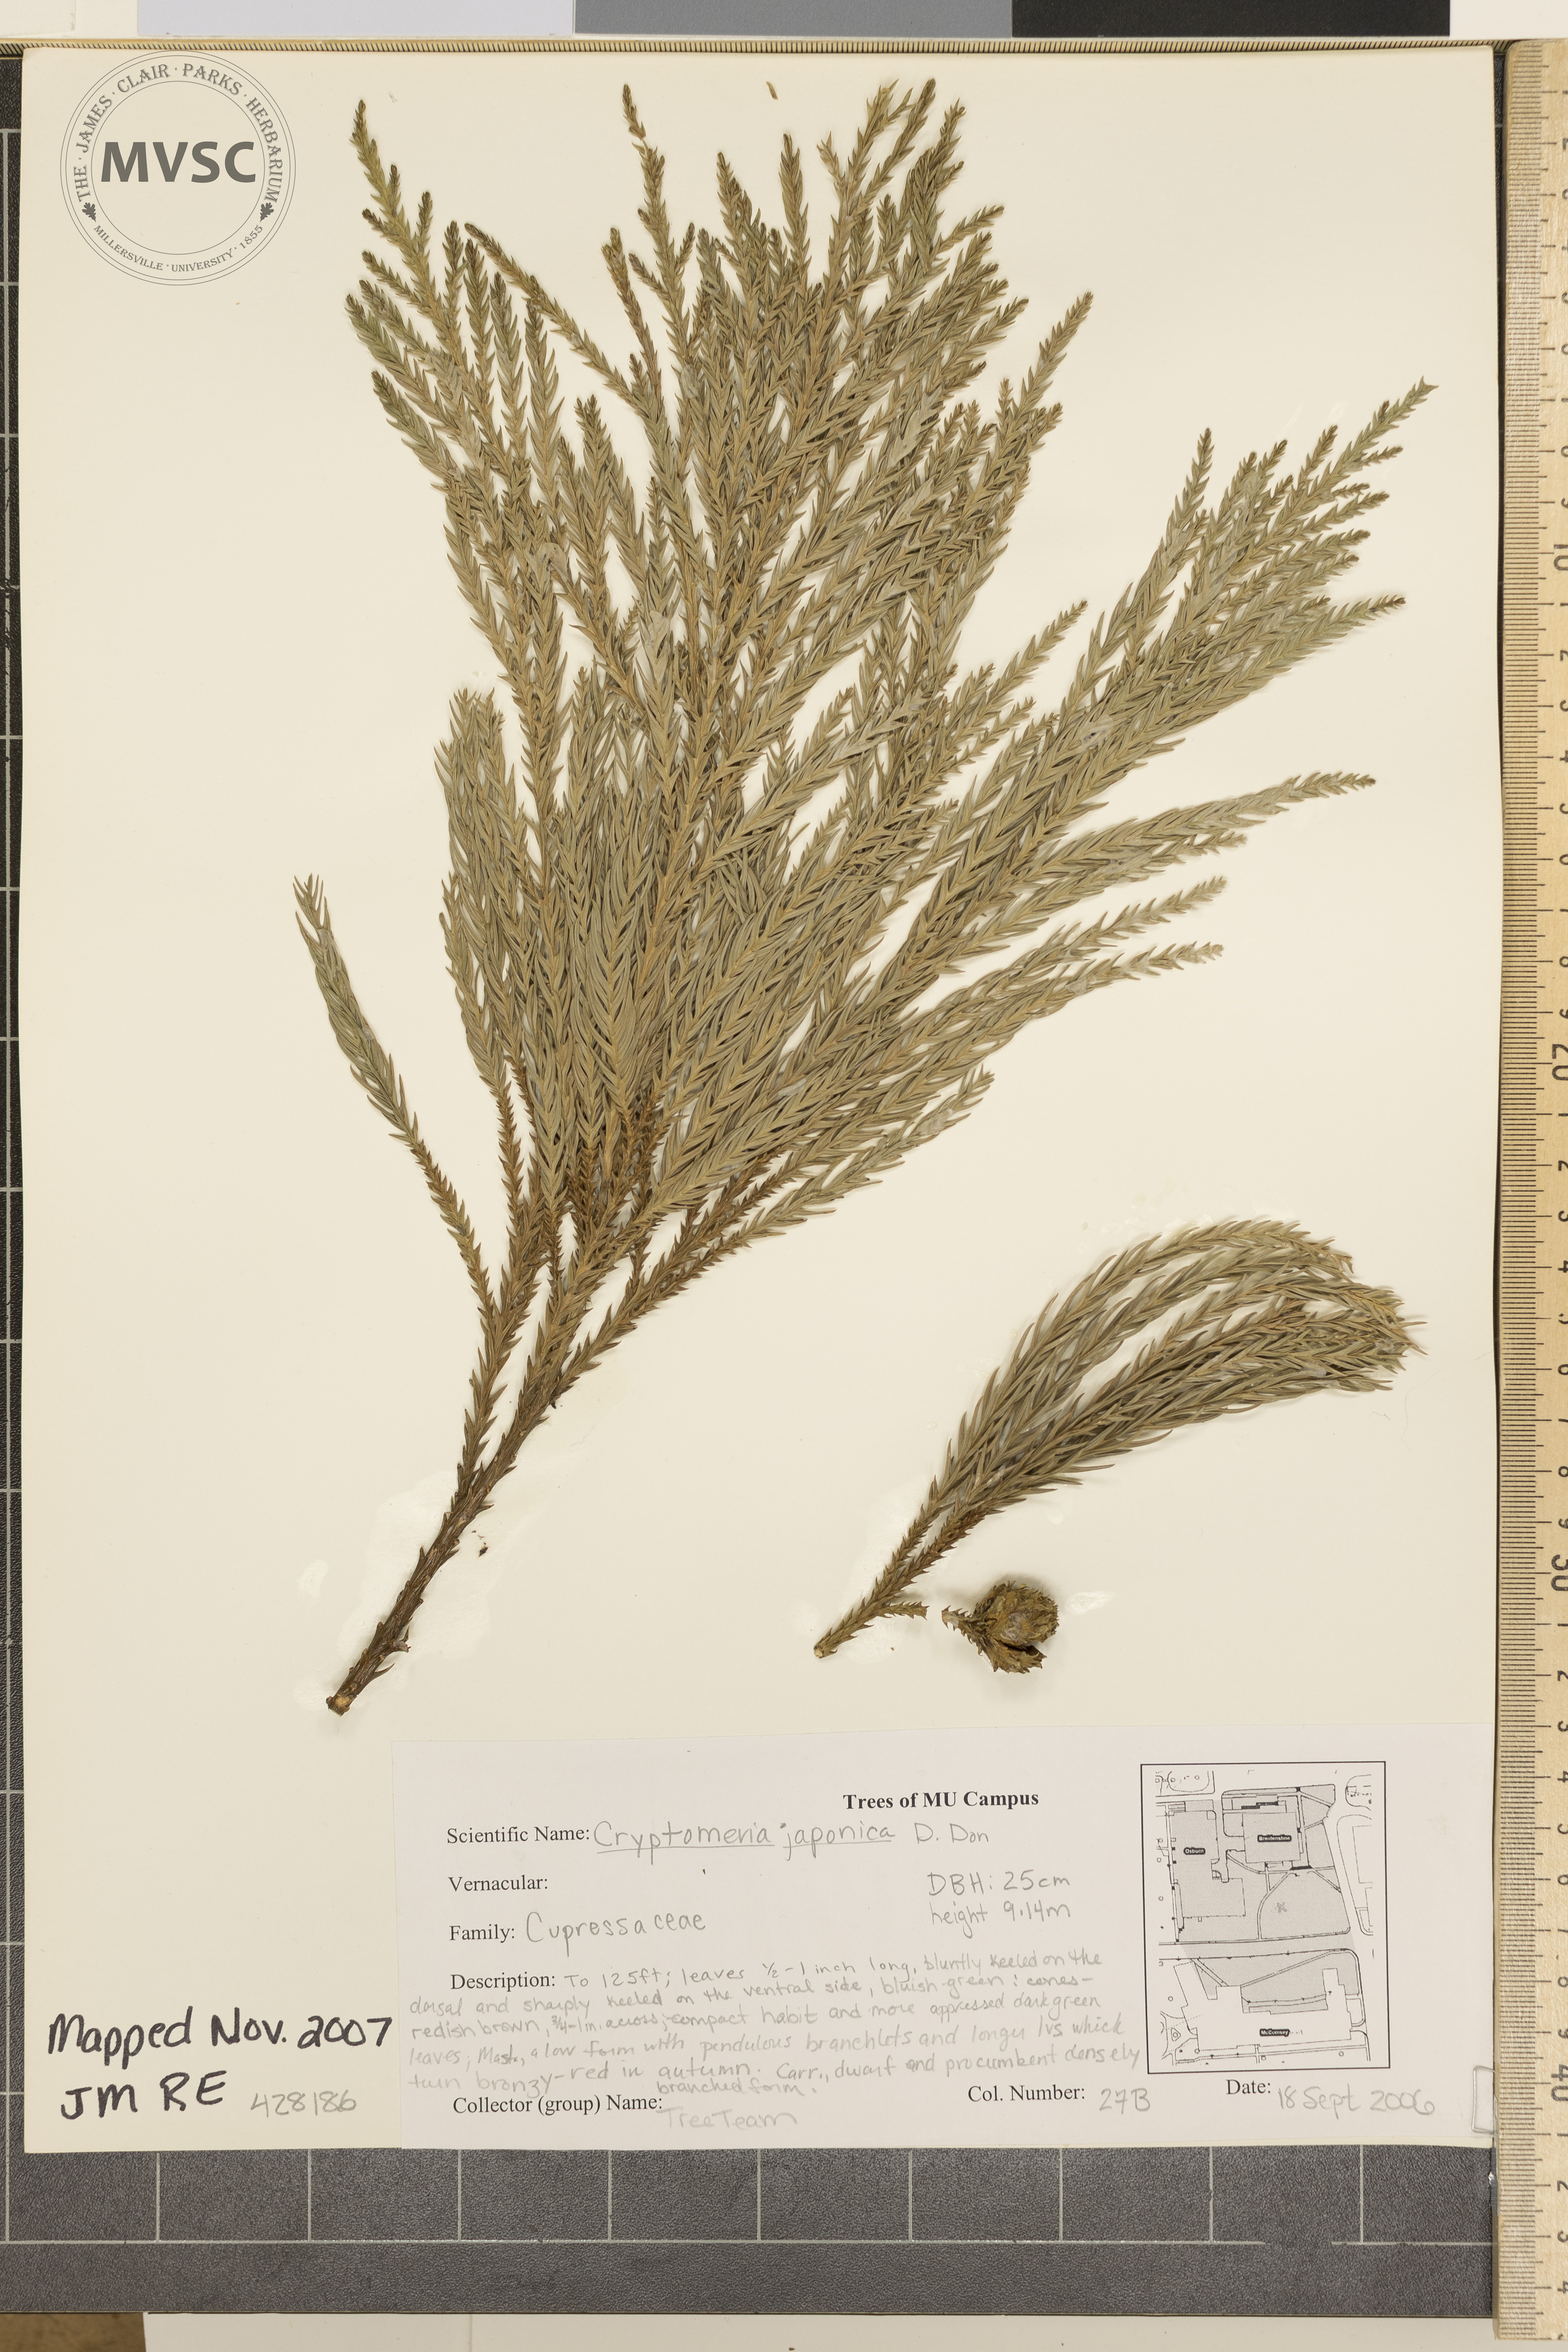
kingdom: Plantae
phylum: Tracheophyta
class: Pinopsida
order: Pinales
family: Cupressaceae
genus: Cryptomeria
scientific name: Cryptomeria japonica
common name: Japanese Cedar
